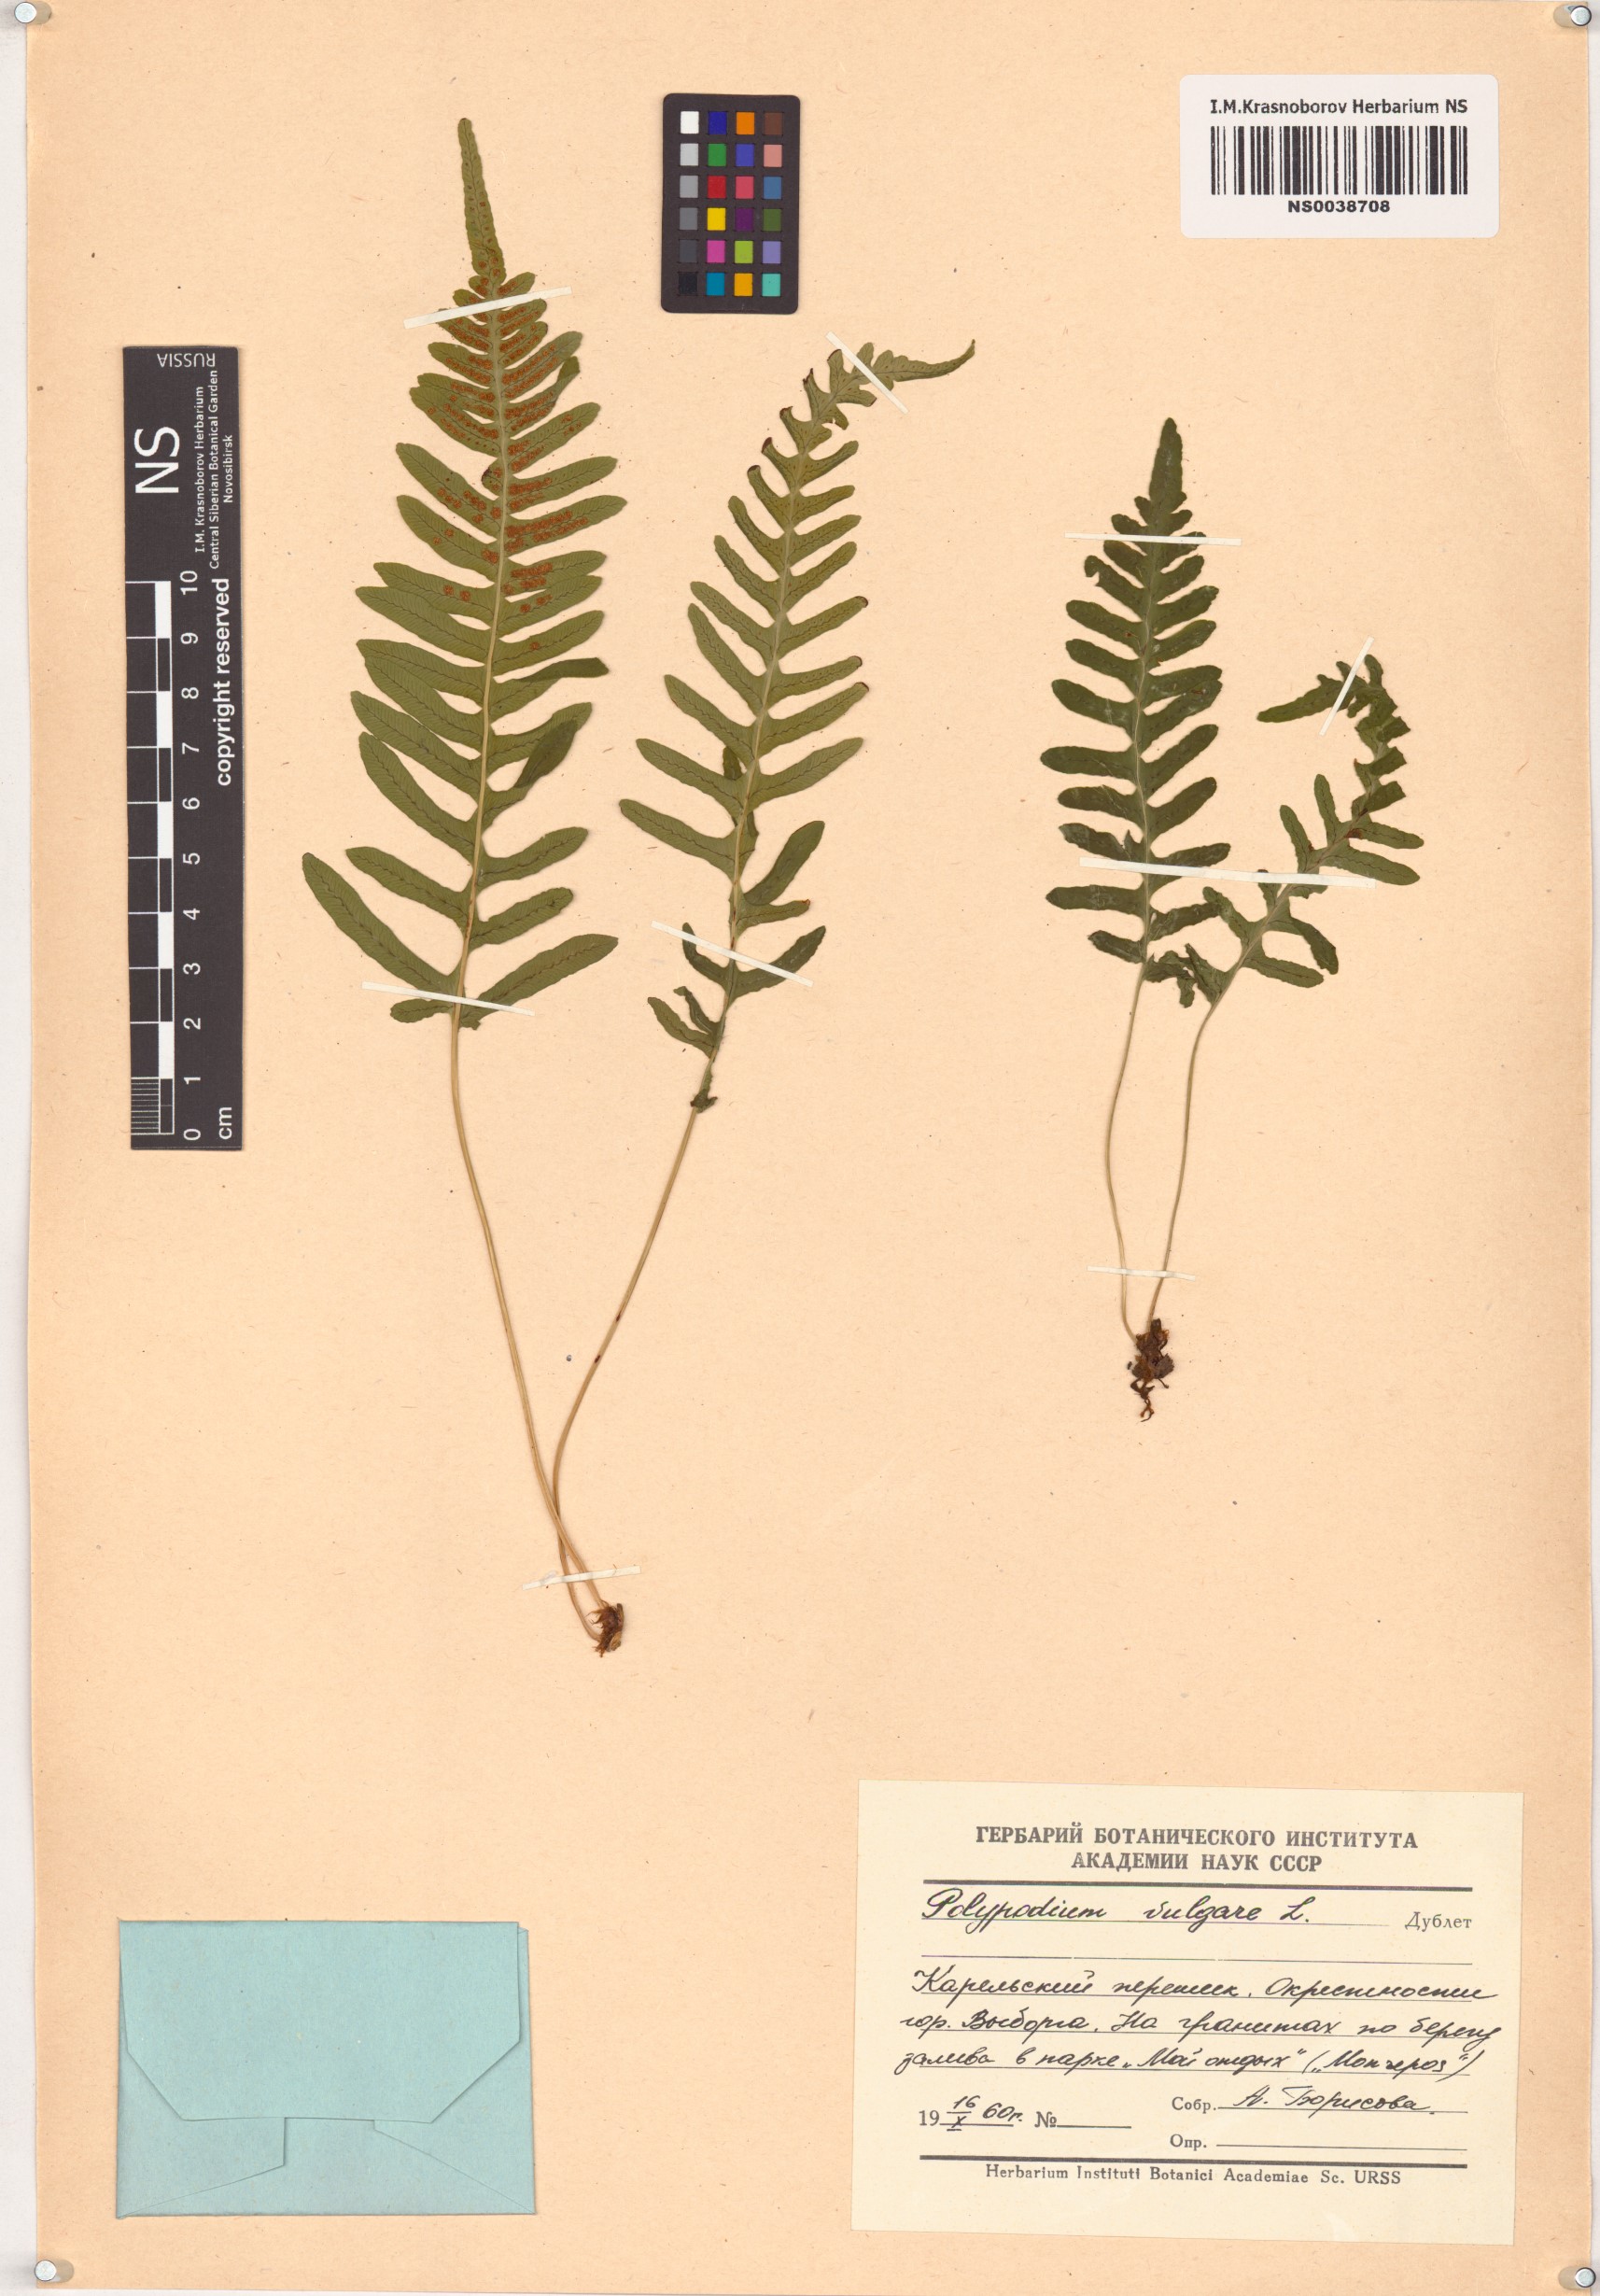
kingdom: Plantae
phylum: Tracheophyta
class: Polypodiopsida
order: Polypodiales
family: Polypodiaceae
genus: Polypodium
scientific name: Polypodium vulgare
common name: Common polypody
